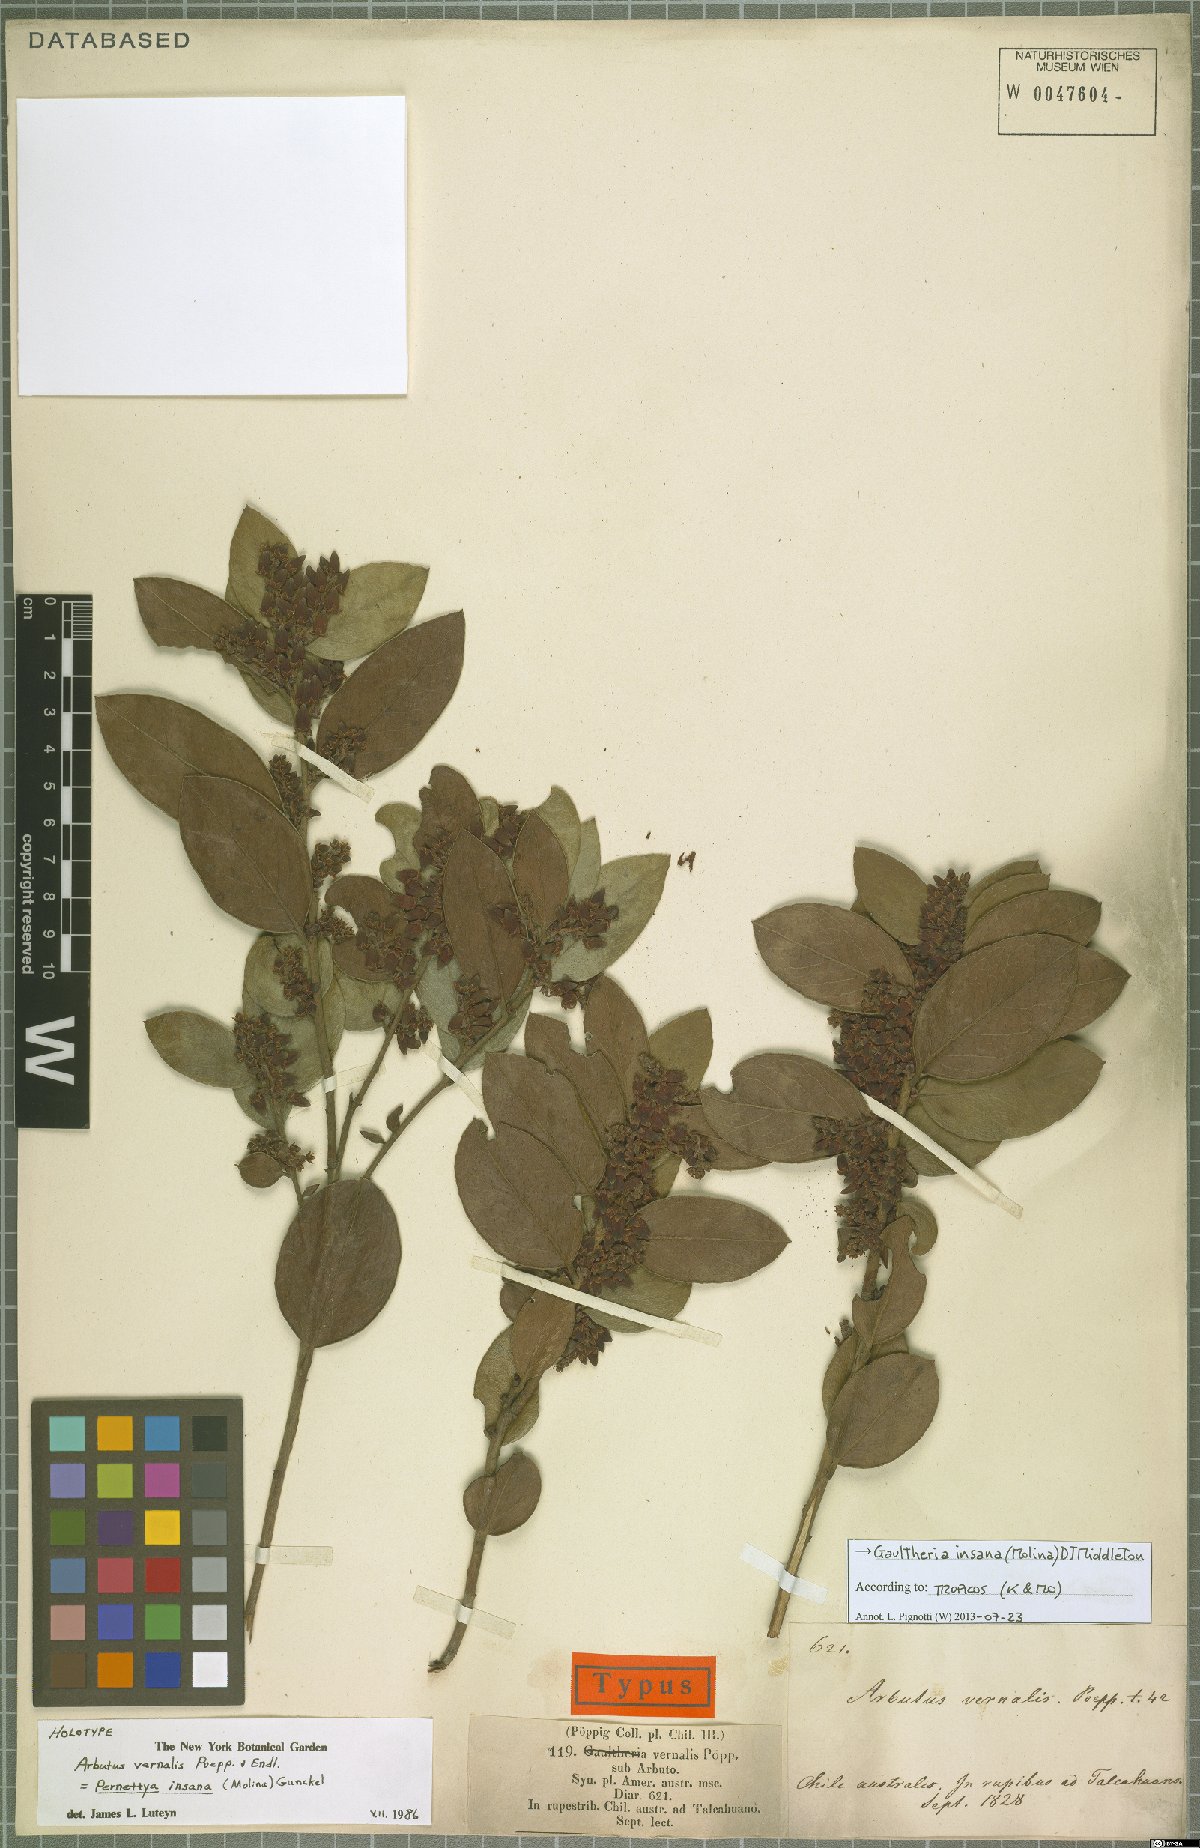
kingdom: Plantae
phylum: Tracheophyta
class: Magnoliopsida
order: Ericales
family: Ericaceae
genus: Gaultheria
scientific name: Gaultheria insana
